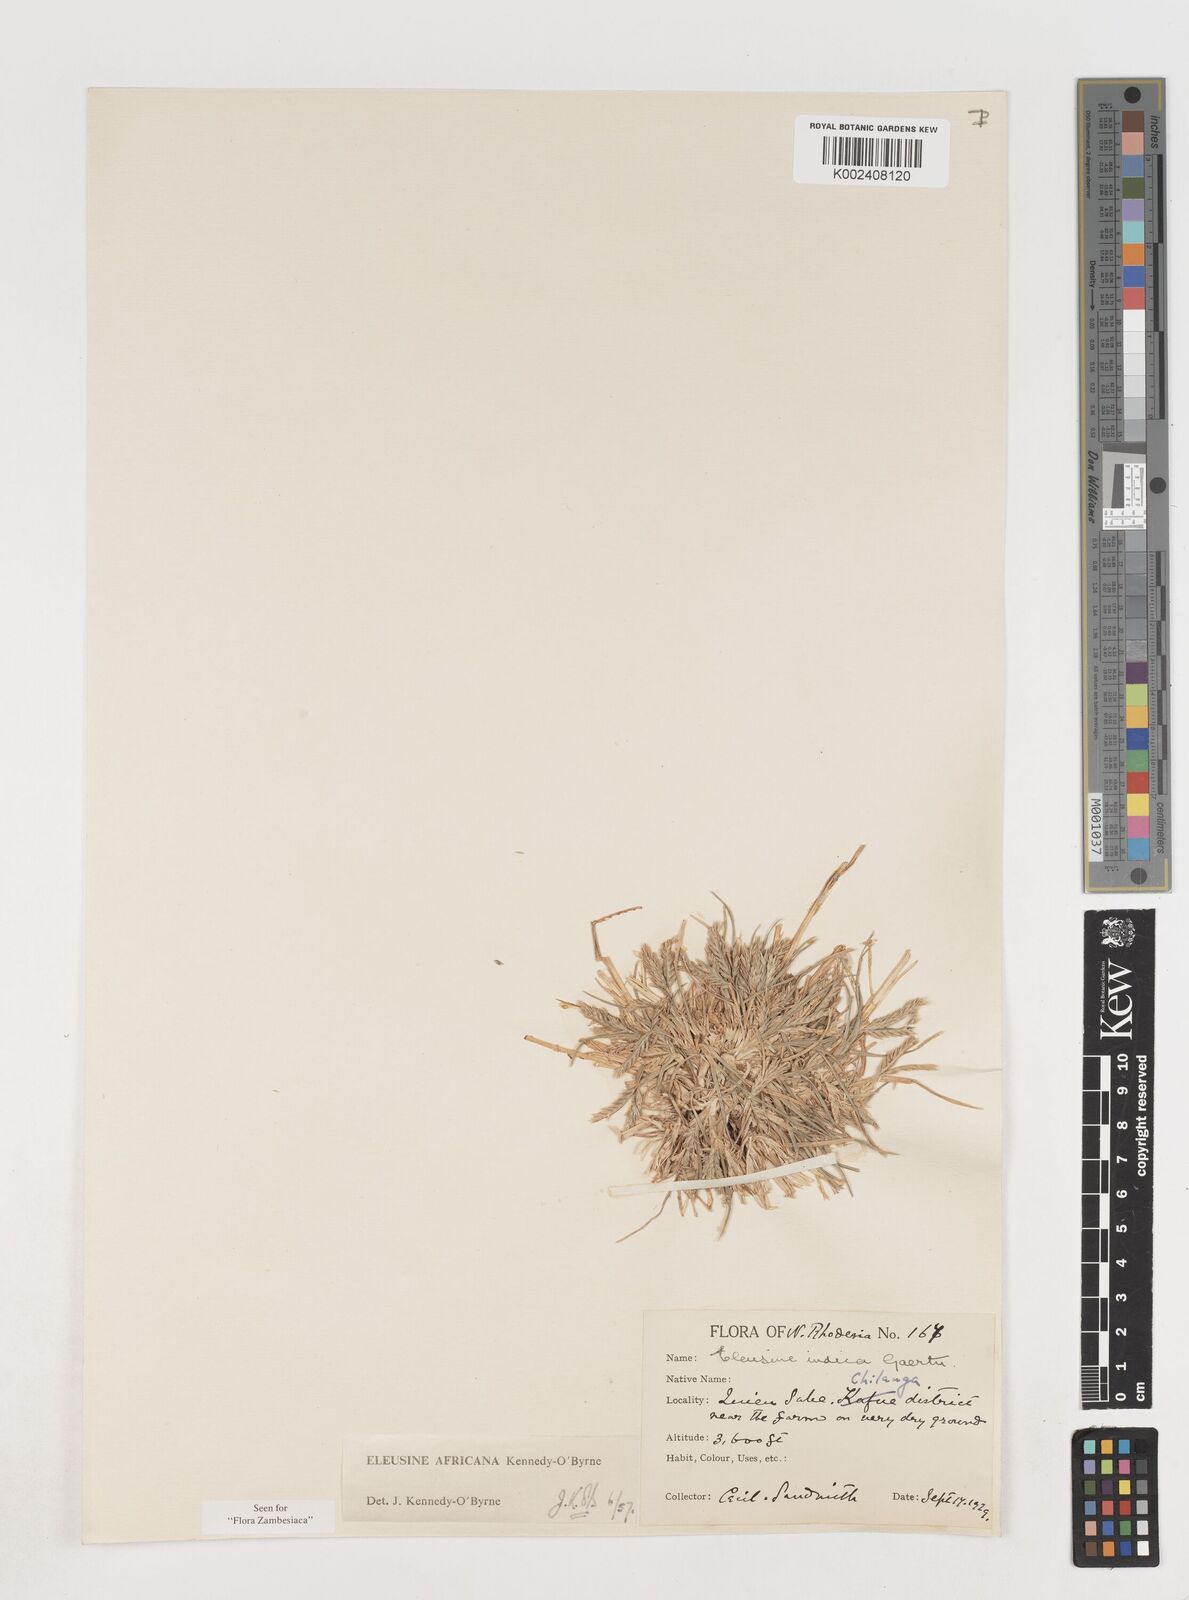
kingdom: Plantae
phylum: Tracheophyta
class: Liliopsida
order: Poales
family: Poaceae
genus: Eleusine
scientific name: Eleusine africana
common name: Wild african finger millet
